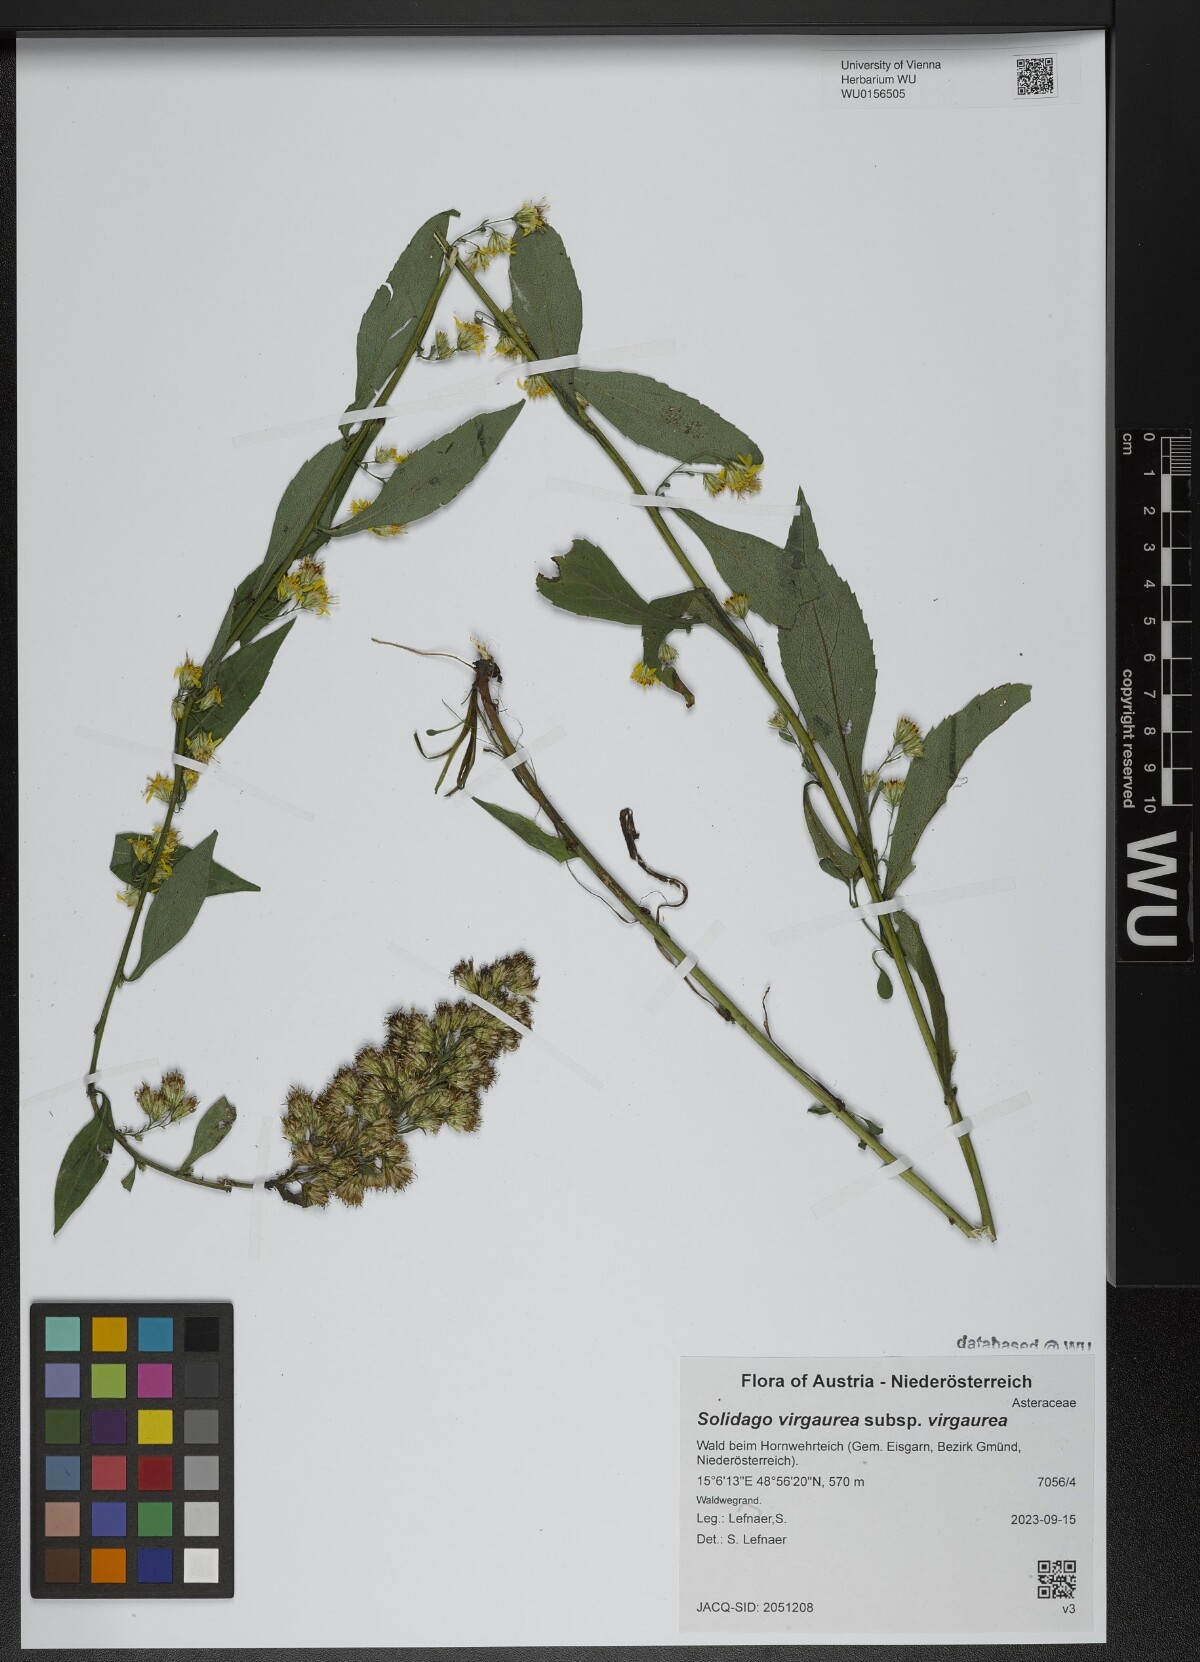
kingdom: Plantae
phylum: Tracheophyta
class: Magnoliopsida
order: Asterales
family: Asteraceae
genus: Solidago
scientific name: Solidago virgaurea
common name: Goldenrod
